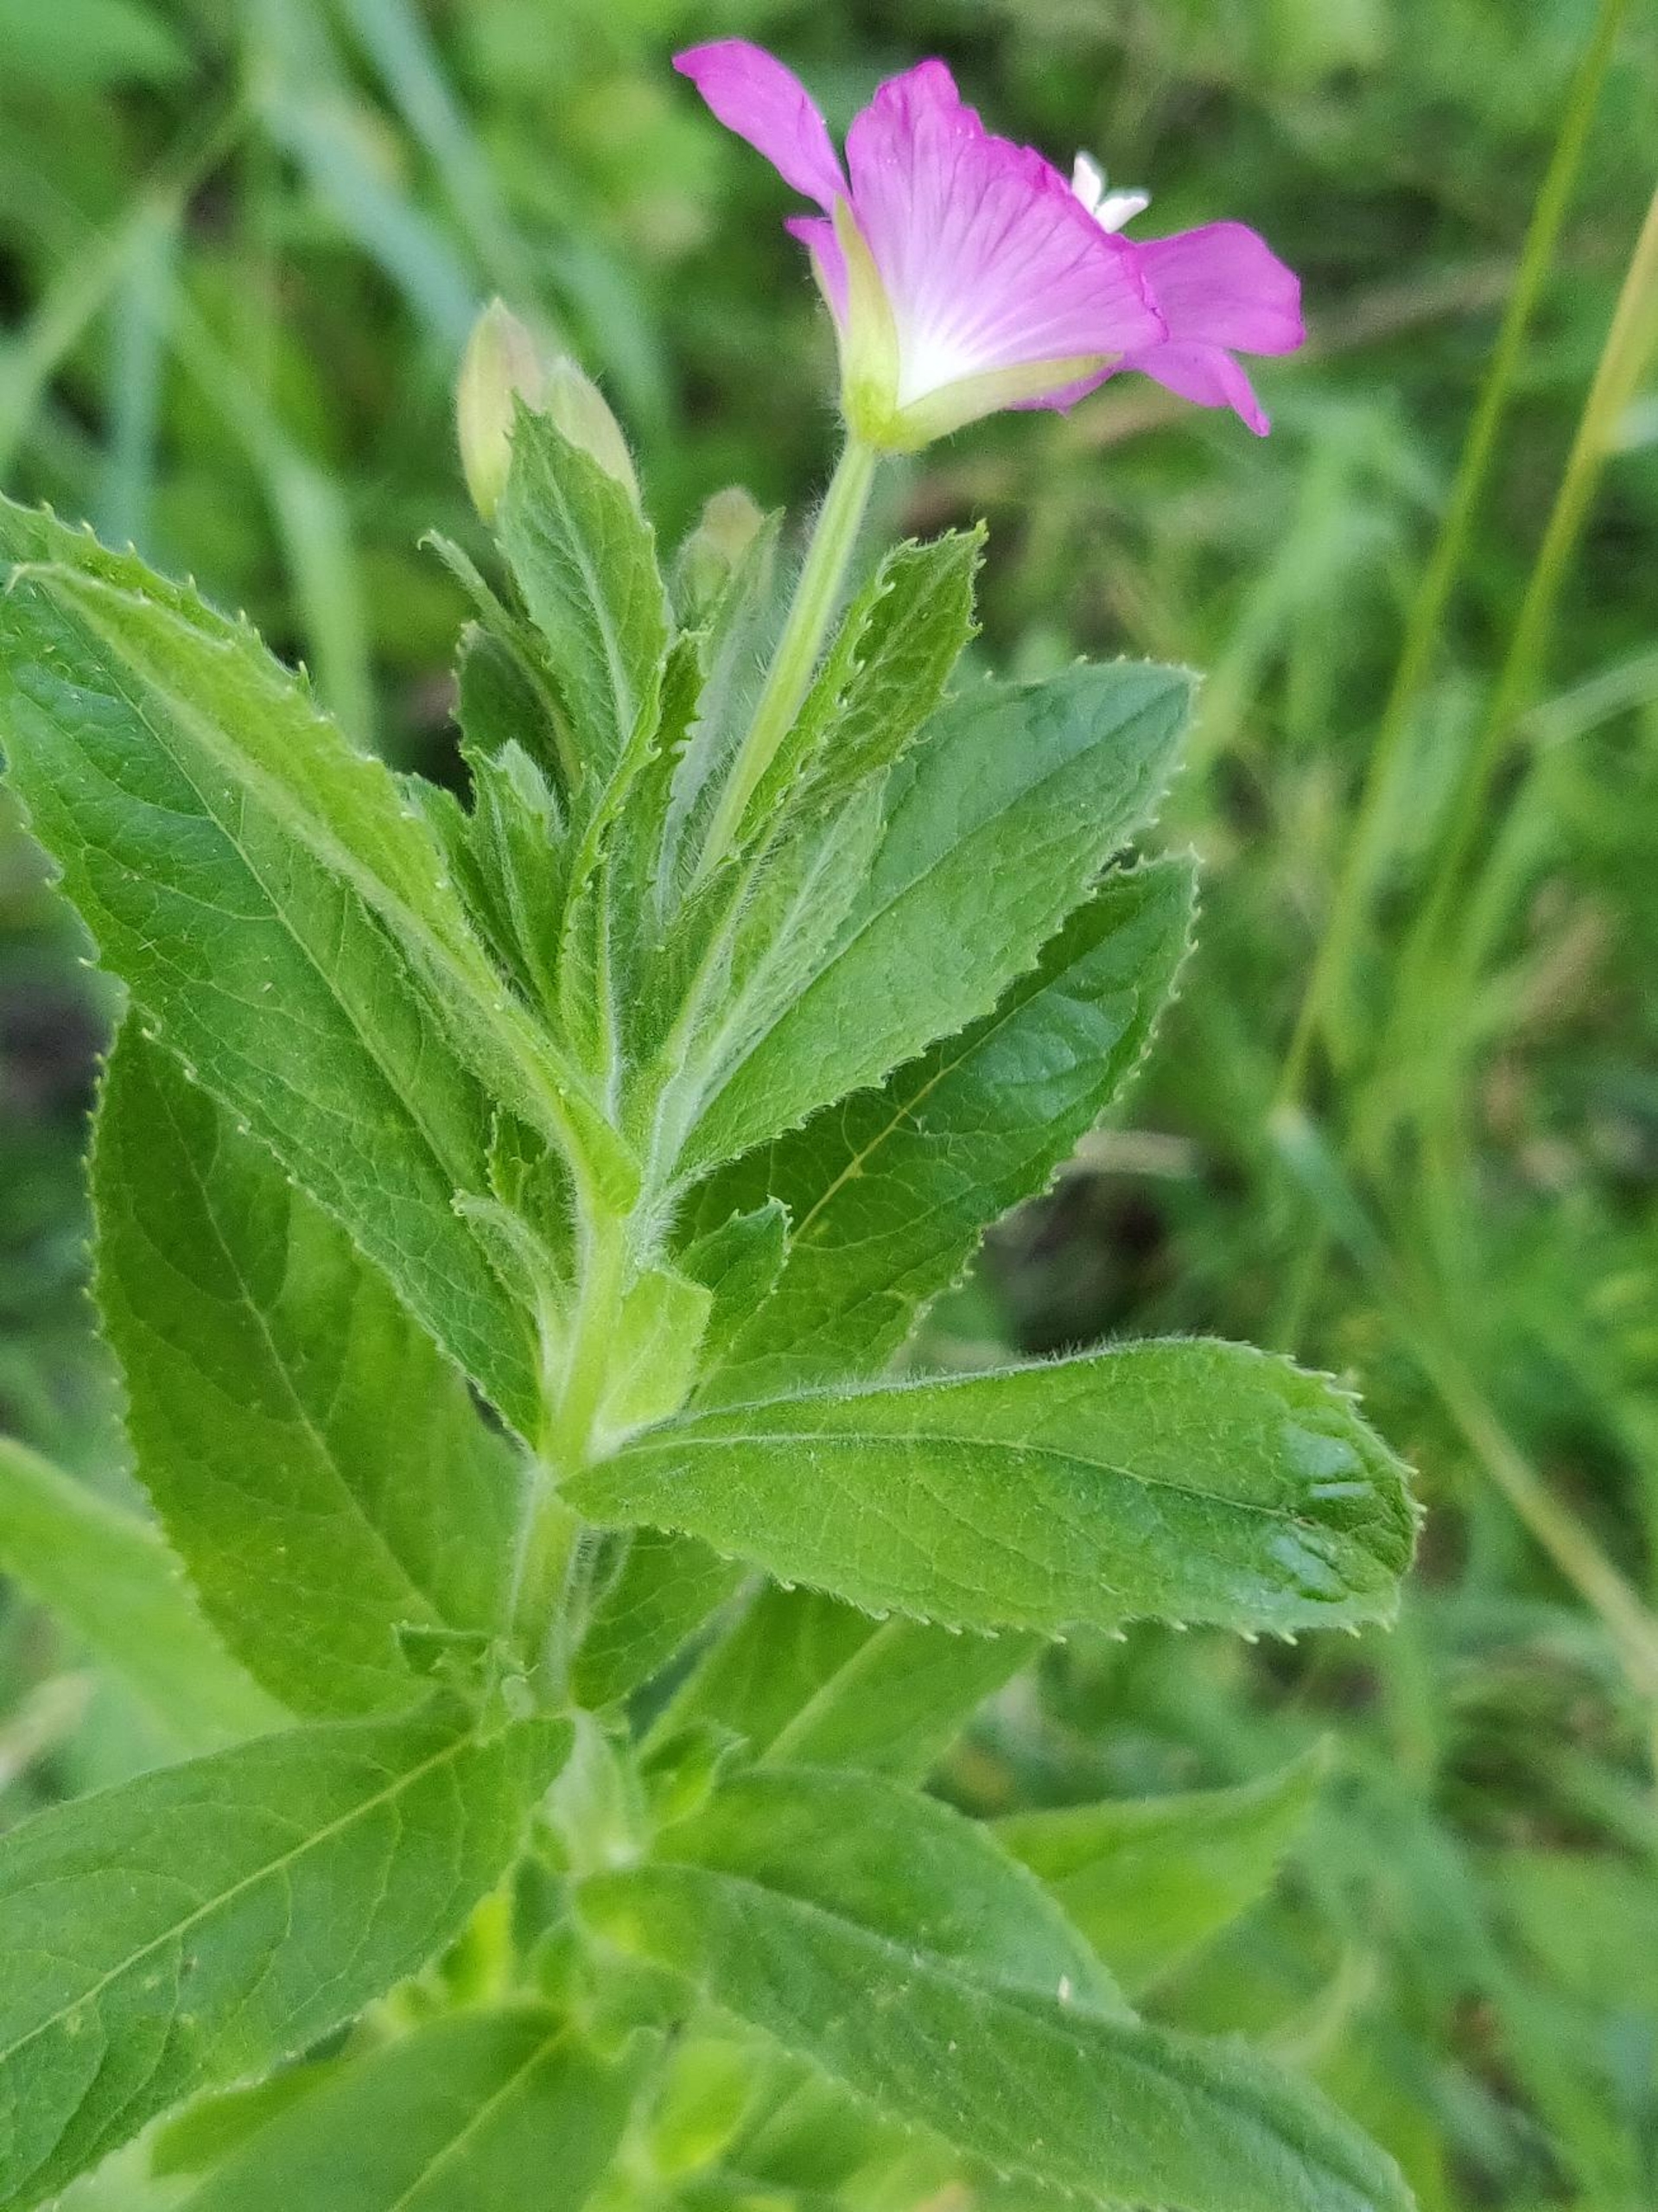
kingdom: Plantae
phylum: Tracheophyta
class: Magnoliopsida
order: Myrtales
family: Onagraceae
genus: Epilobium
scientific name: Epilobium hirsutum
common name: Lådden dueurt
